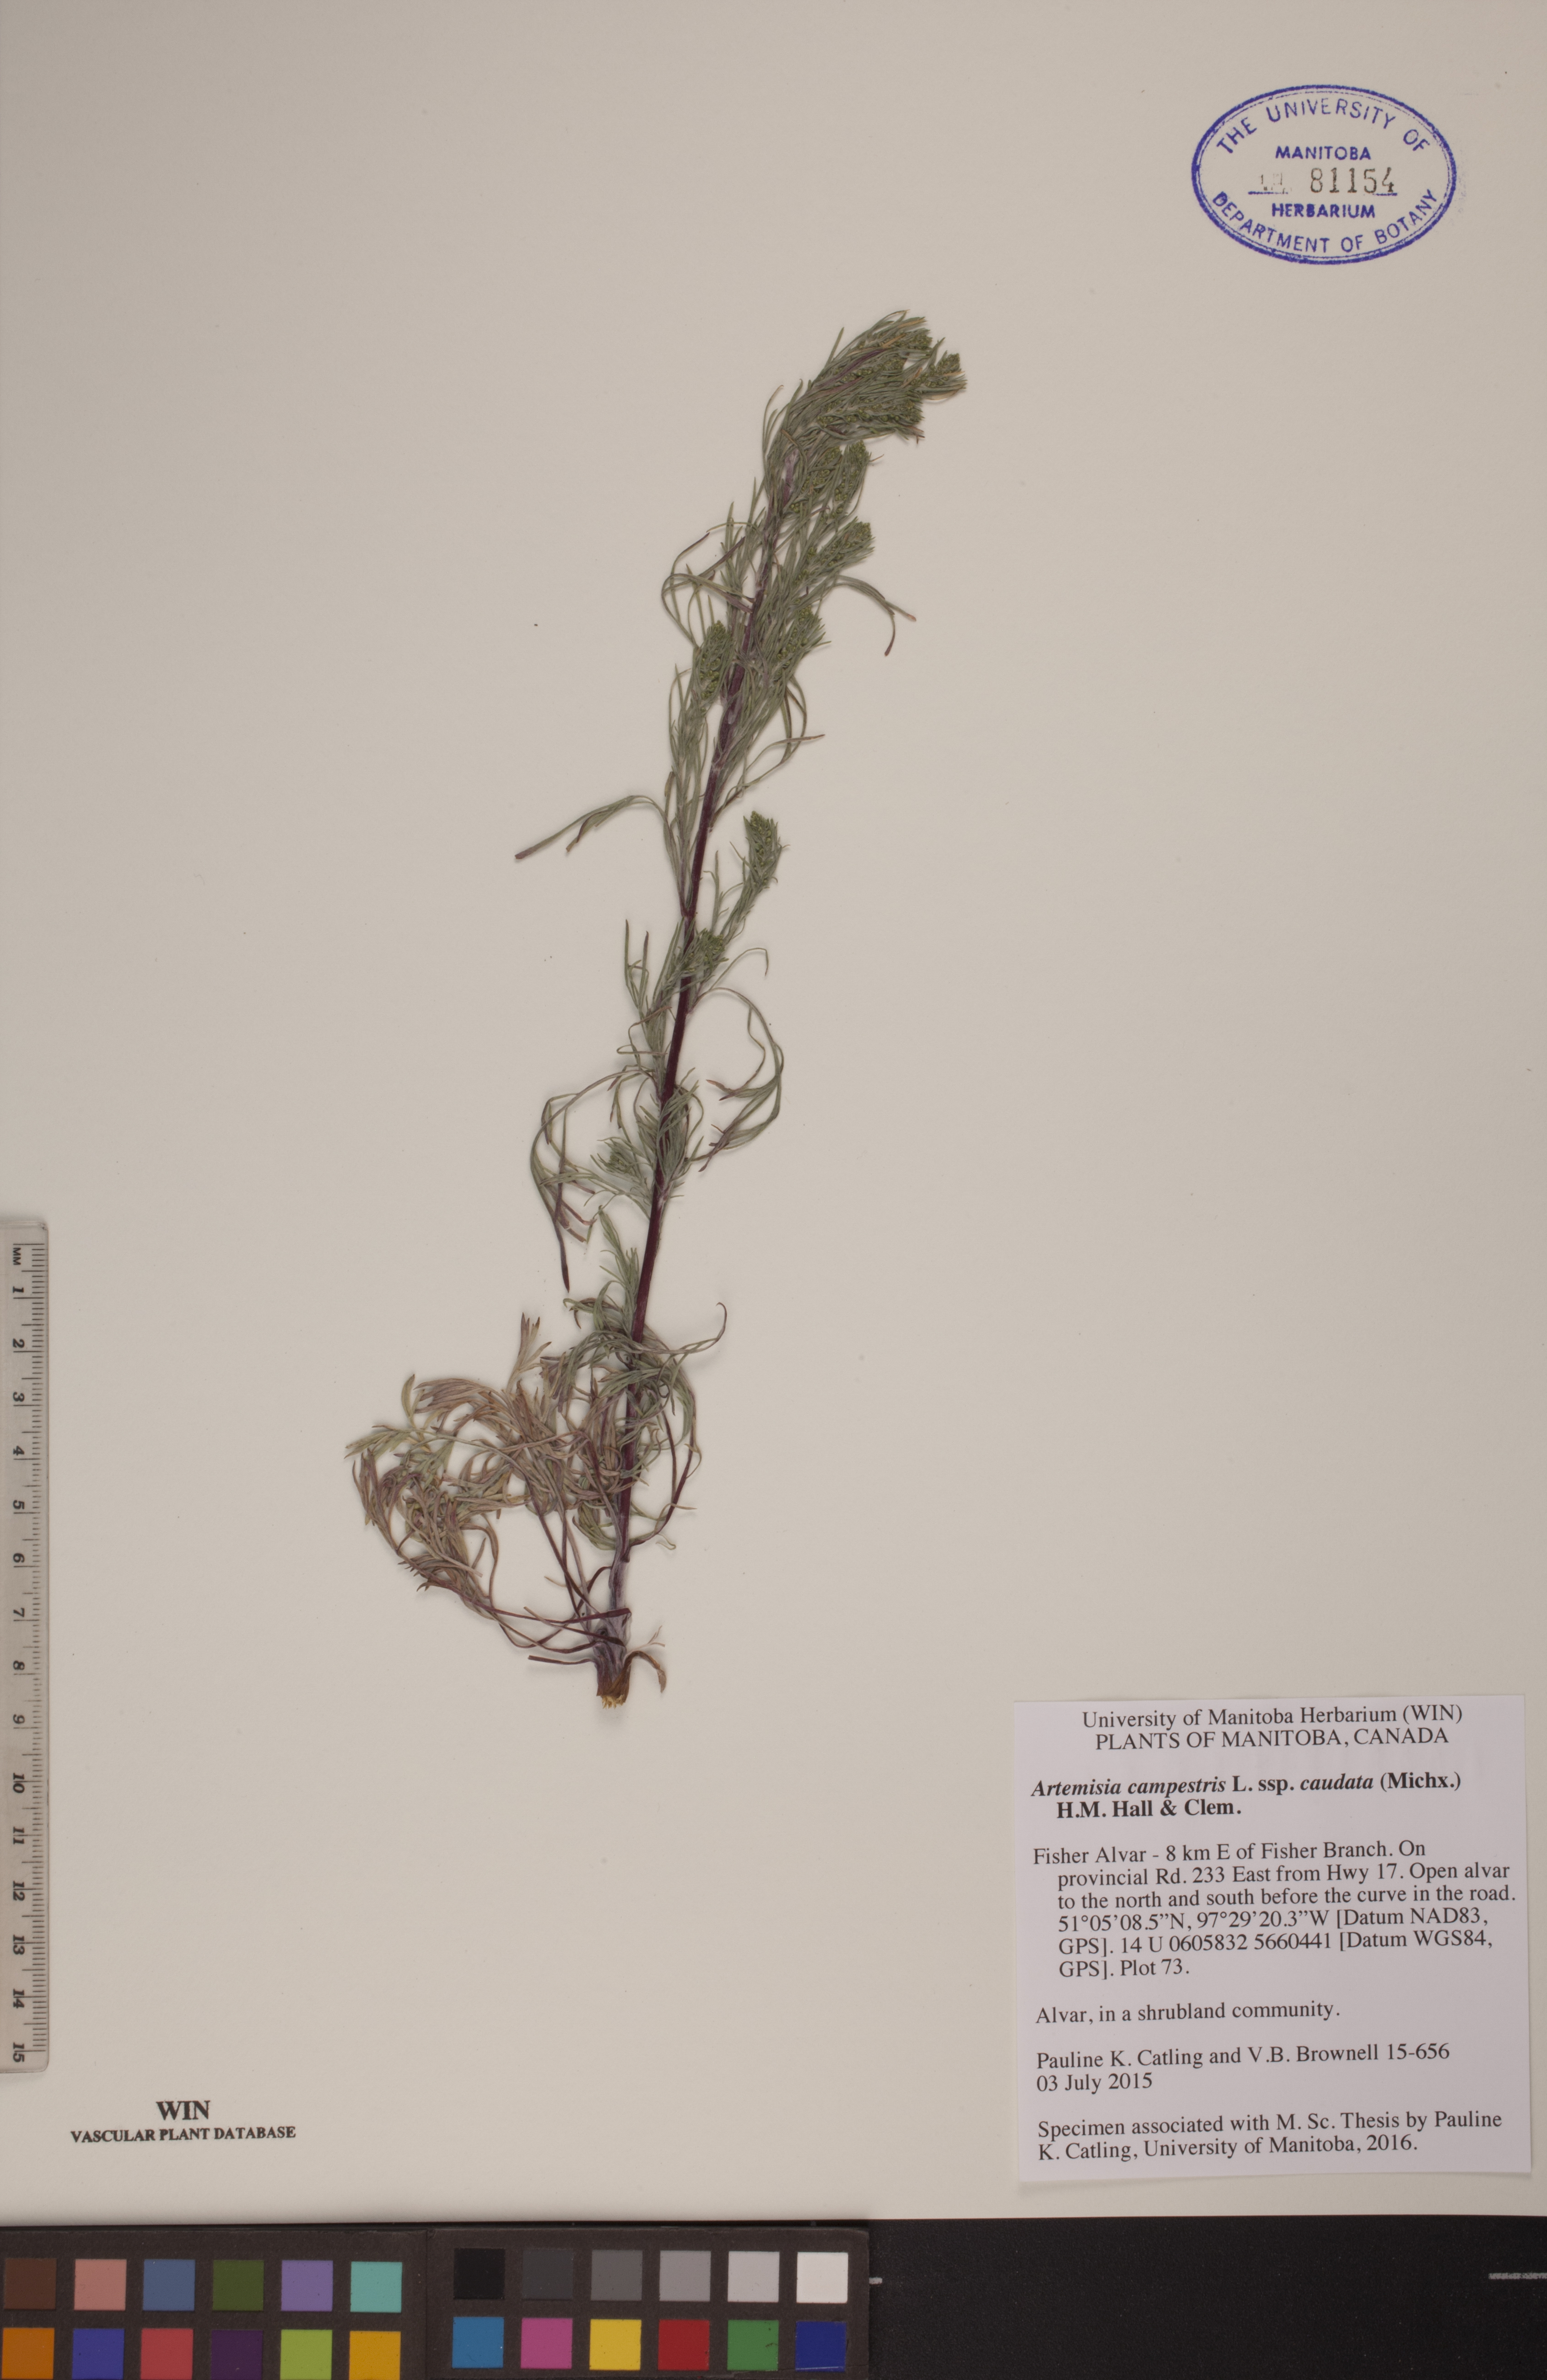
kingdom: Plantae
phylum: Tracheophyta
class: Magnoliopsida
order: Asterales
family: Asteraceae
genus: Artemisia
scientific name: Artemisia campestris
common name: Field wormwood
